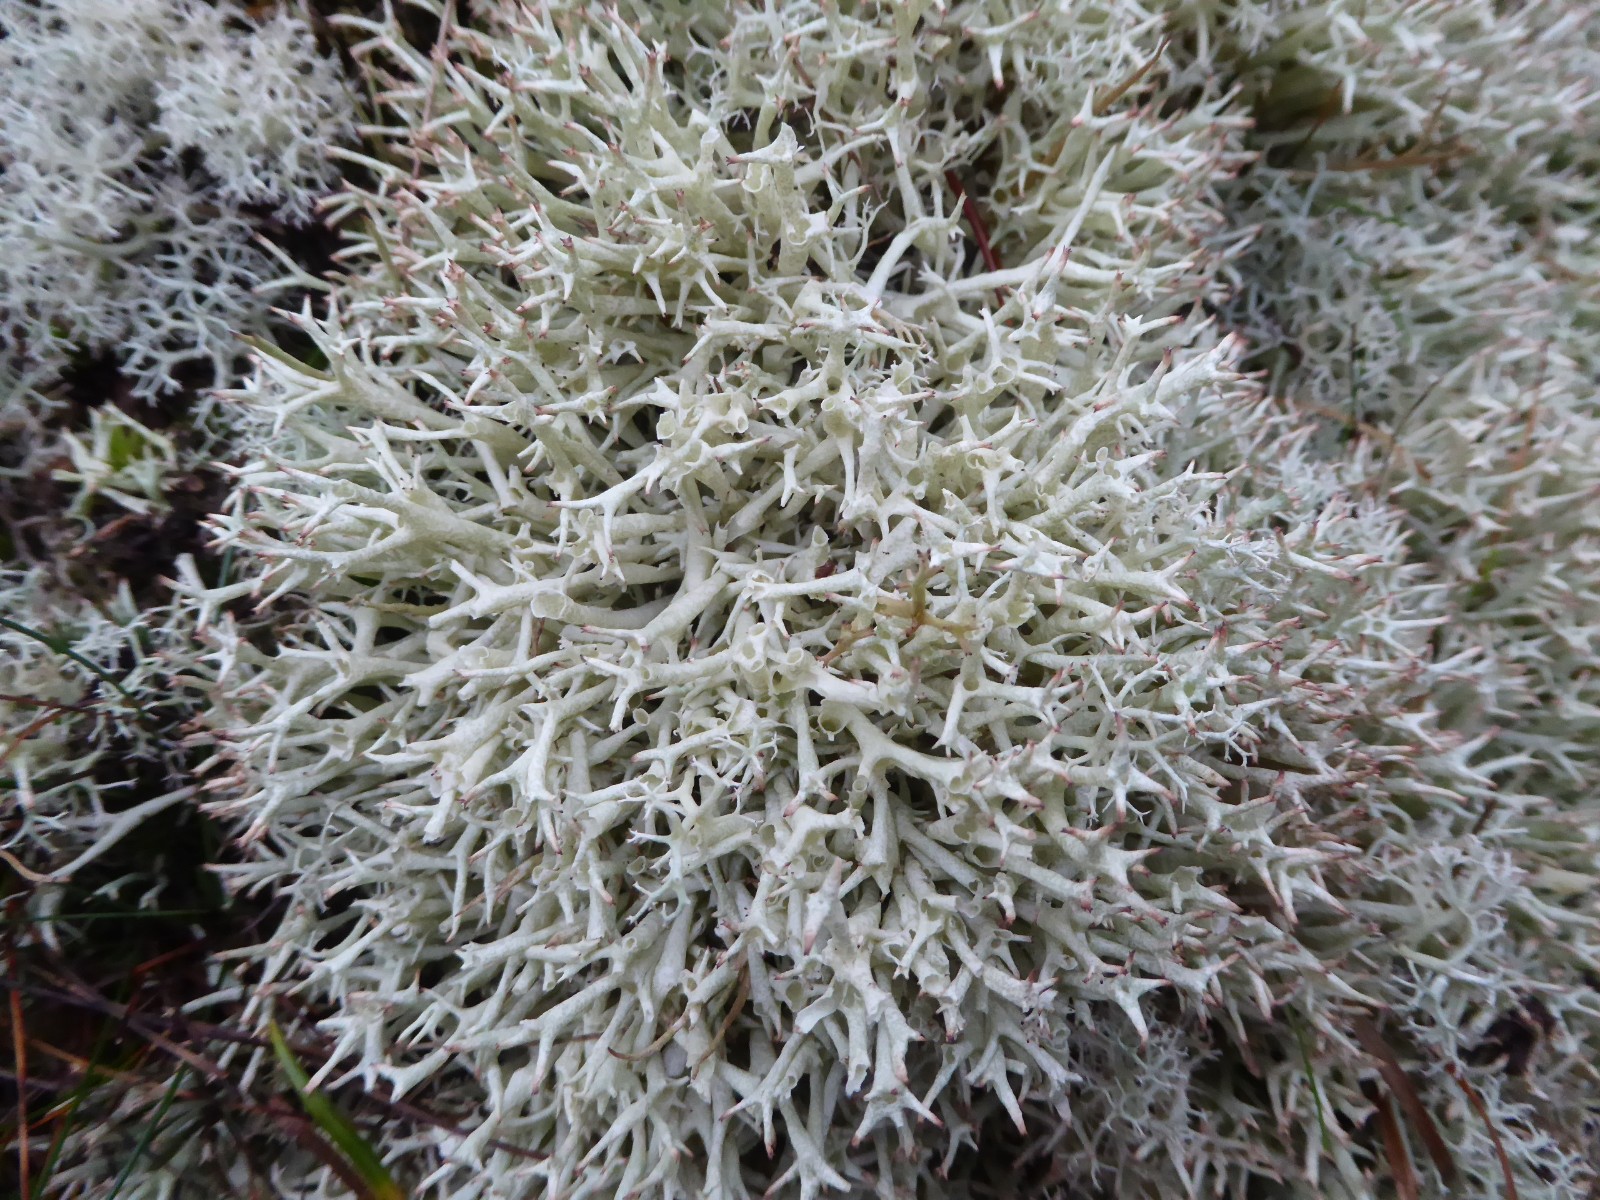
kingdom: Fungi
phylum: Ascomycota
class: Lecanoromycetes
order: Lecanorales
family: Cladoniaceae
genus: Cladonia
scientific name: Cladonia uncialis
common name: pigget bægerlav
